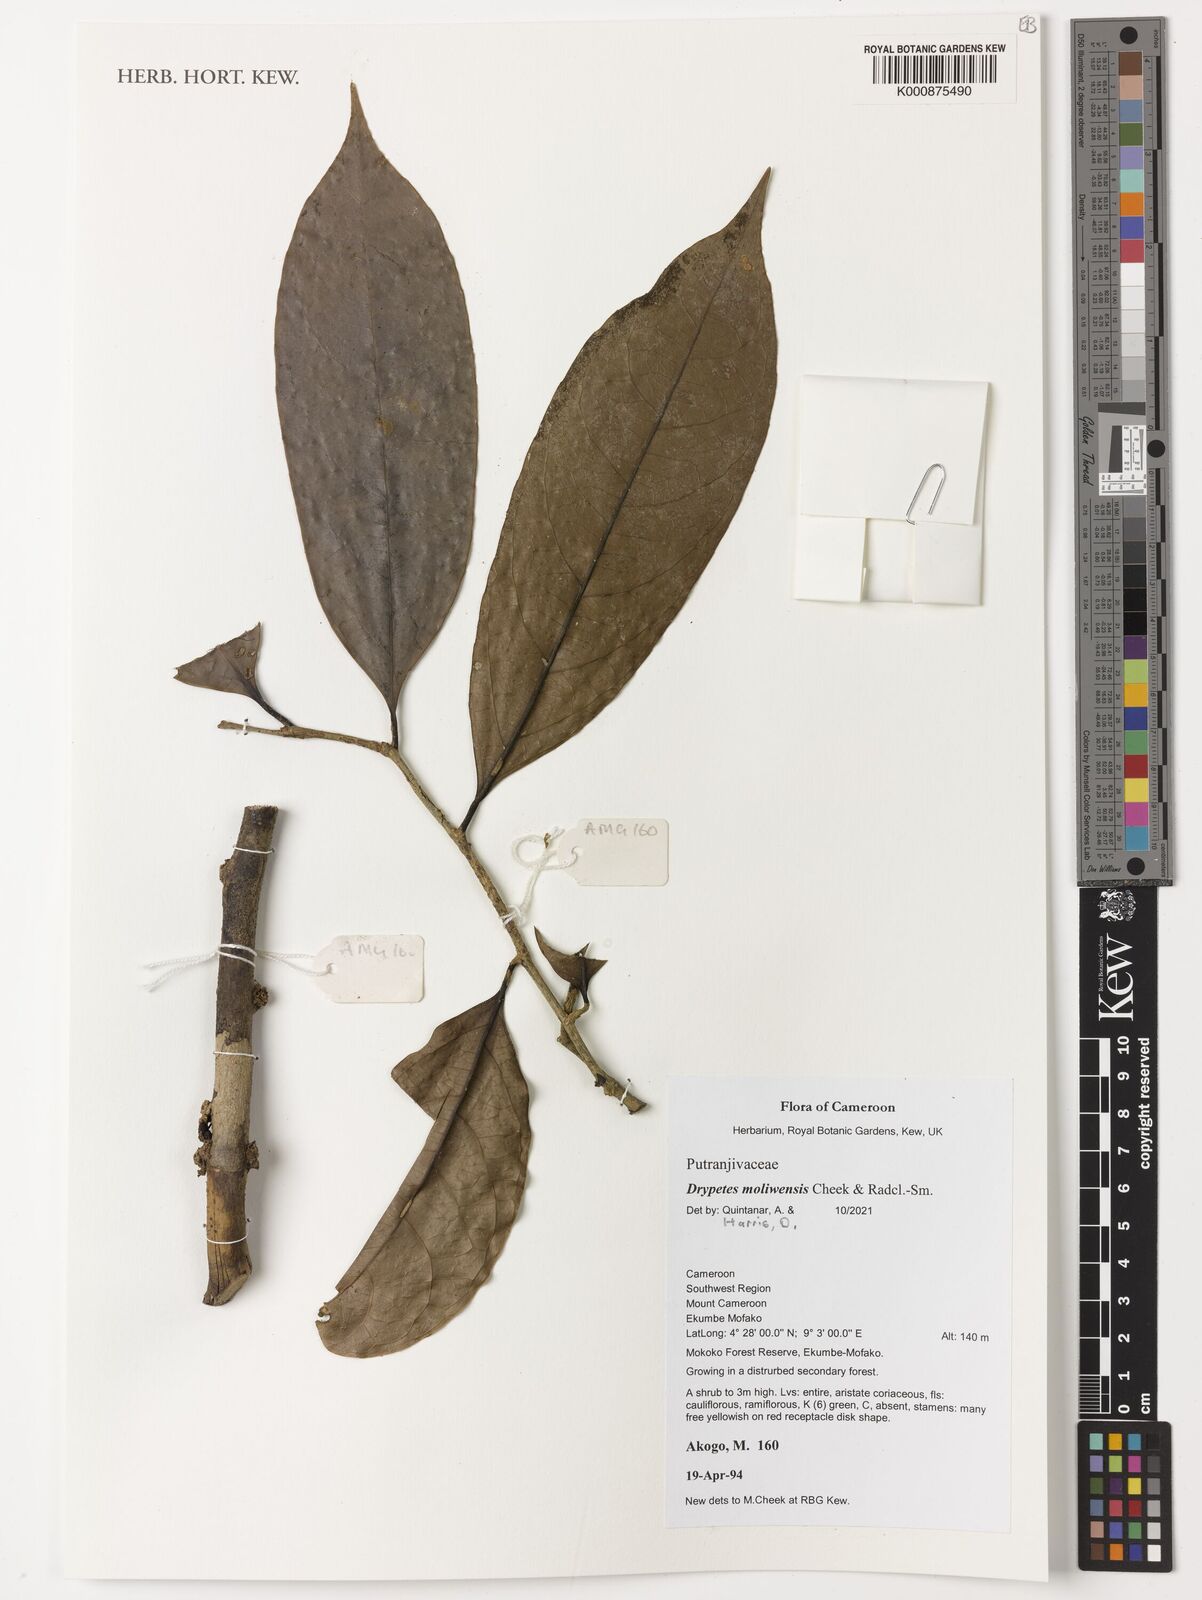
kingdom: Plantae
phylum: Tracheophyta
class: Magnoliopsida
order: Malpighiales
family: Putranjivaceae
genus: Drypetes
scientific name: Drypetes moliwensis
